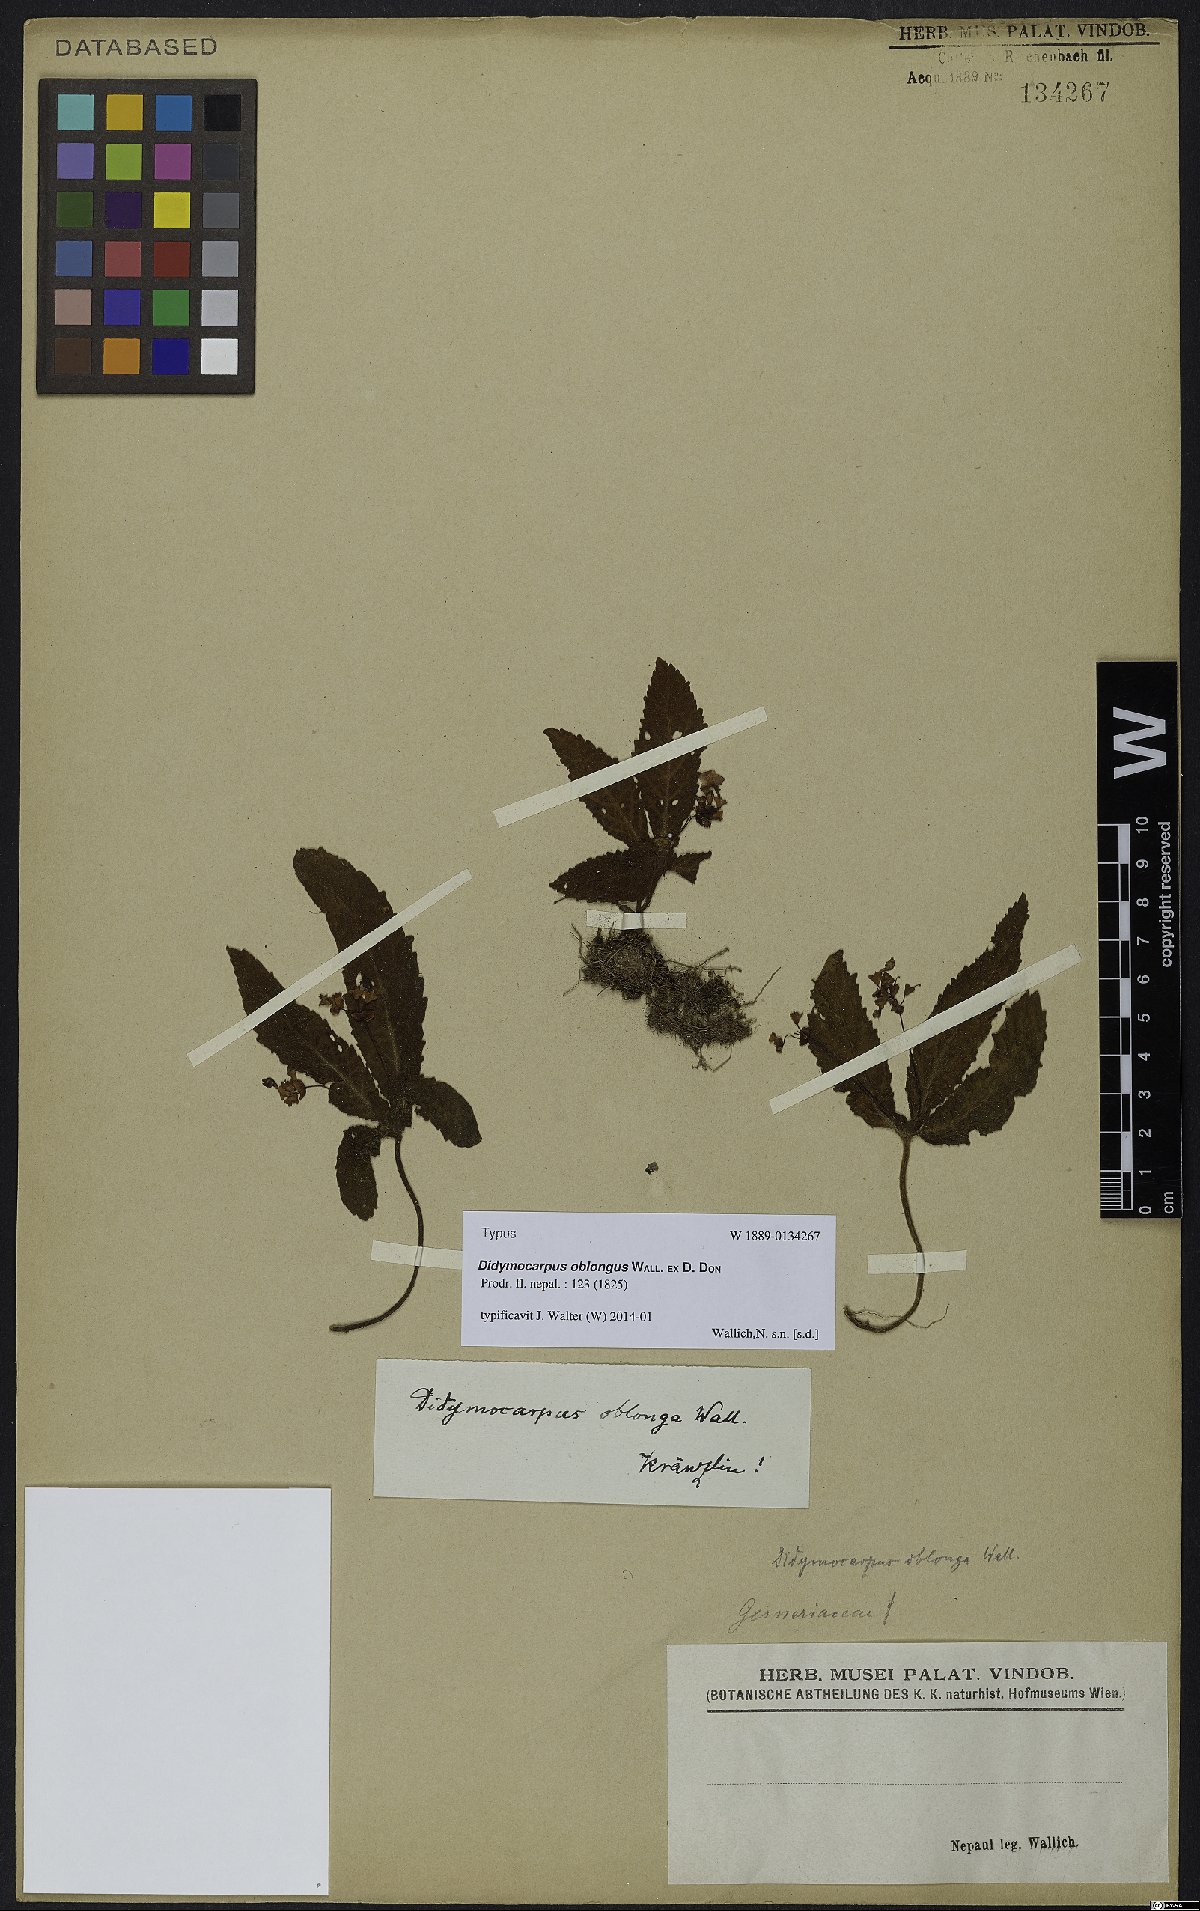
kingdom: Plantae
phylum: Tracheophyta
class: Magnoliopsida
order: Lamiales
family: Gesneriaceae
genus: Didymocarpus
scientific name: Didymocarpus oblongus
